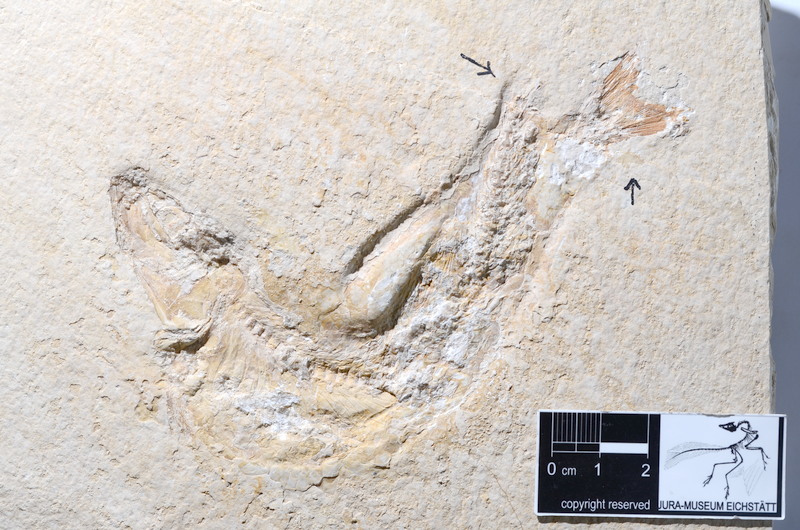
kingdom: Animalia
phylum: Chordata
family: Ascalaboidae
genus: Tharsis
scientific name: Tharsis dubius
